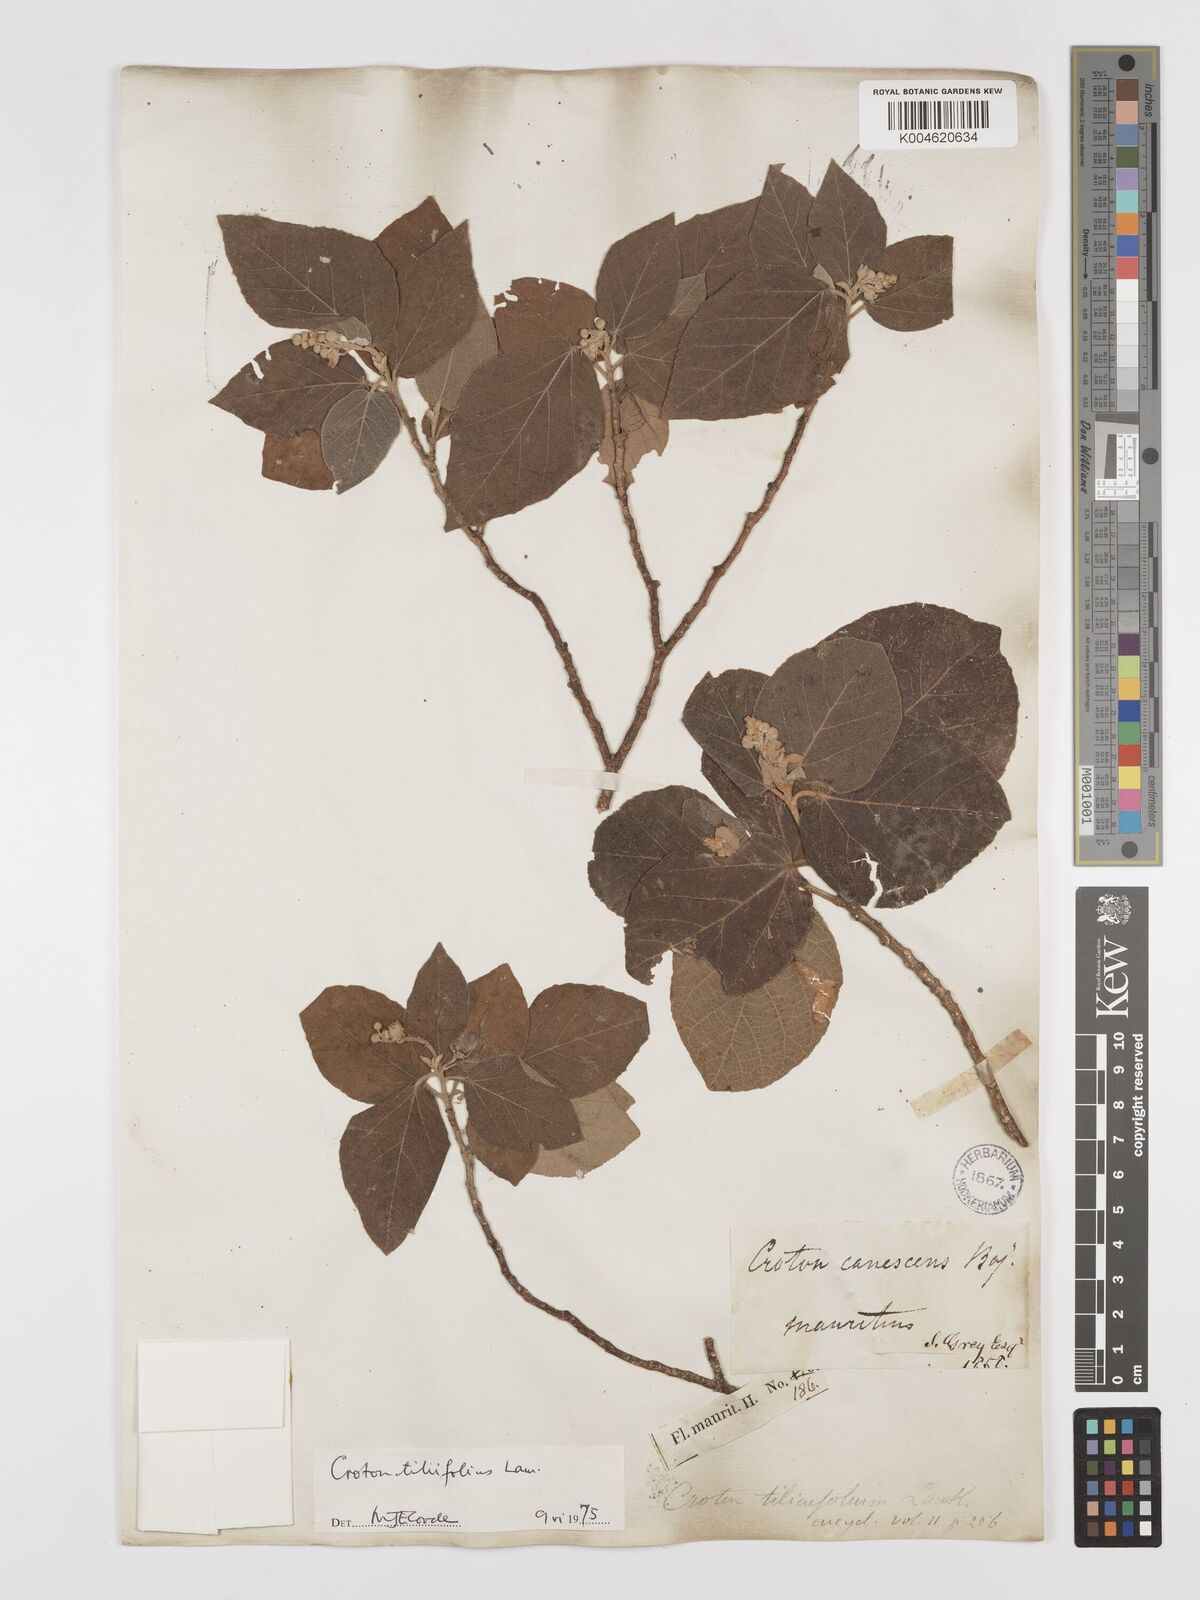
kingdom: Plantae
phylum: Tracheophyta
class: Magnoliopsida
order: Malpighiales
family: Euphorbiaceae
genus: Croton
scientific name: Croton
